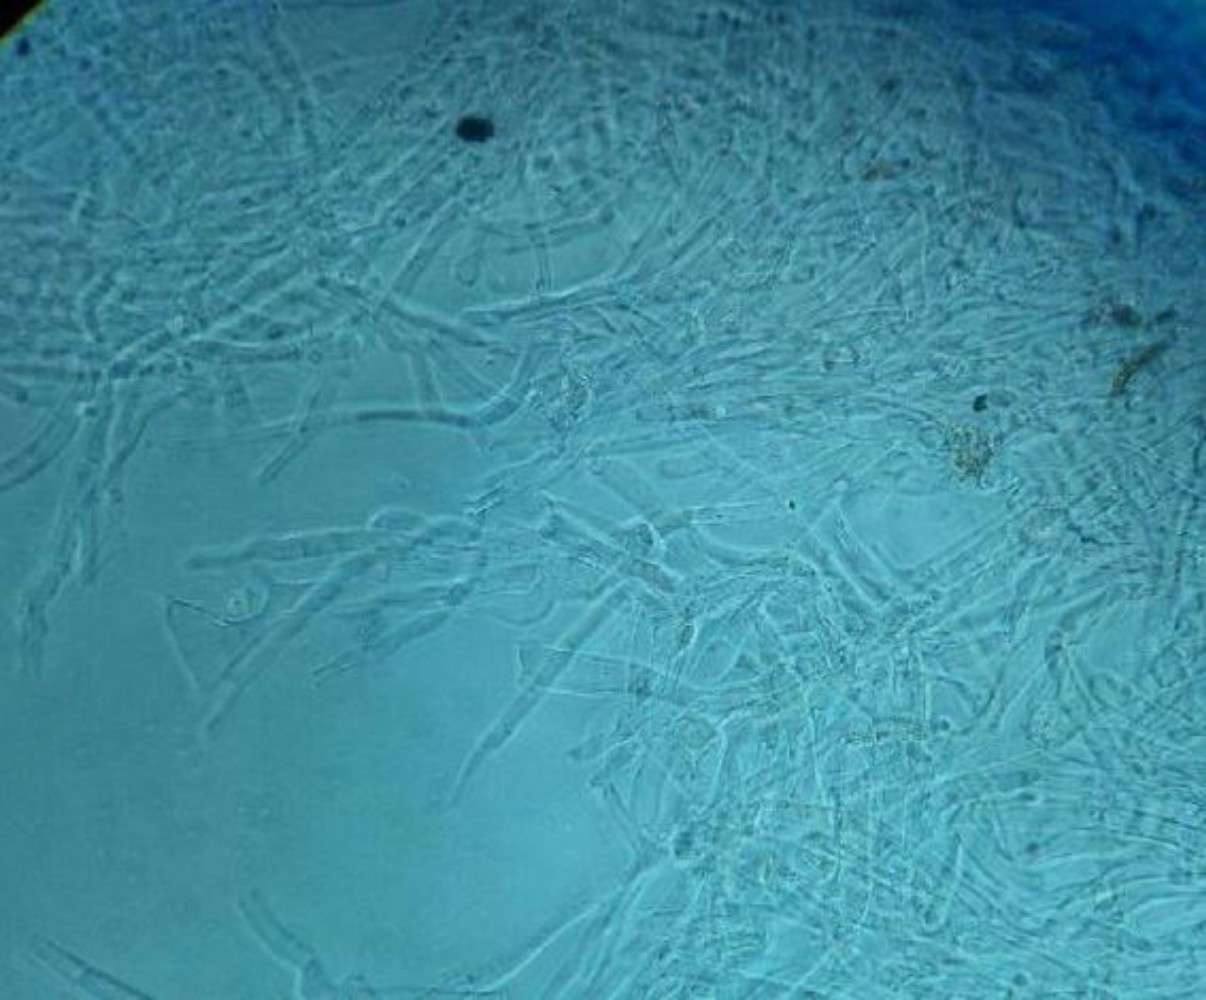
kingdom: Fungi
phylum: Basidiomycota
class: Agaricomycetes
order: Agaricales
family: Tricholomataceae
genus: Clitocybe
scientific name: Clitocybe
